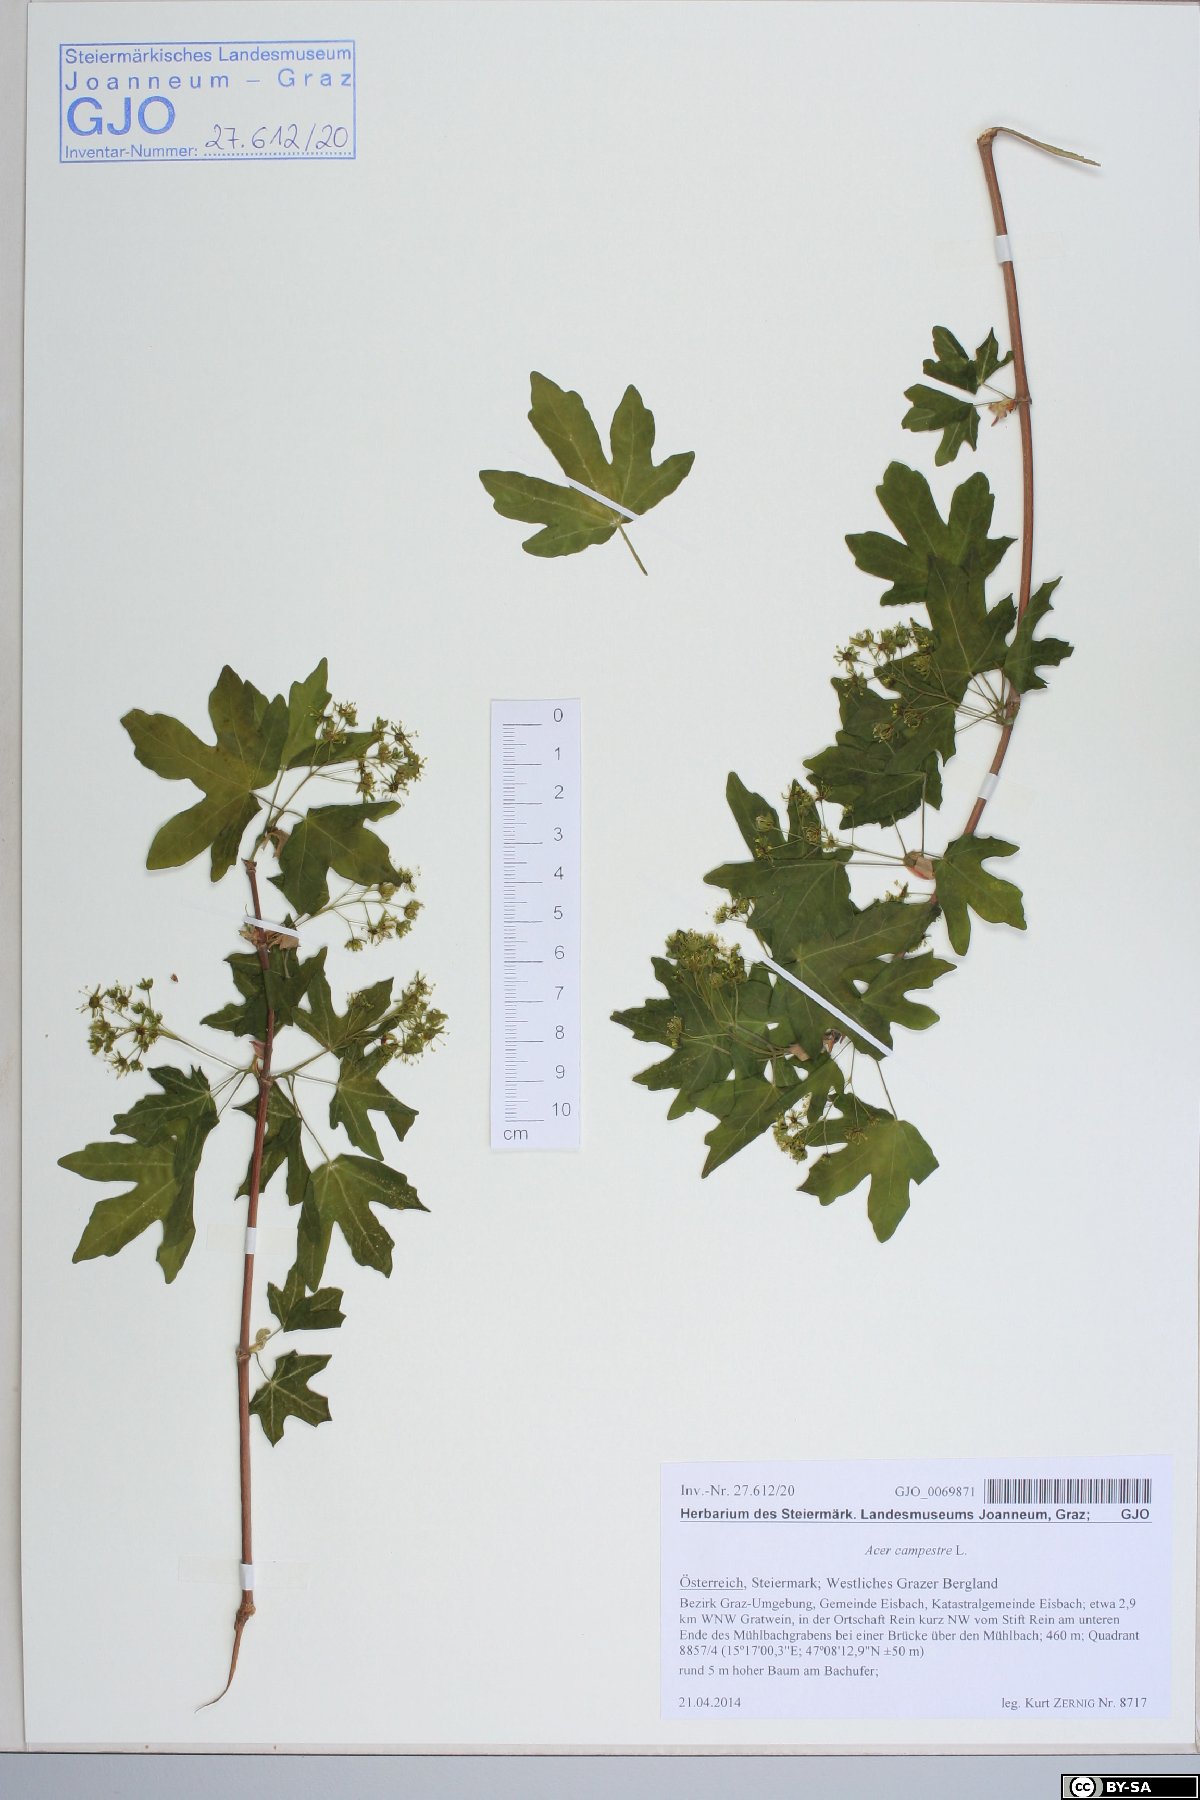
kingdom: Plantae
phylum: Tracheophyta
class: Magnoliopsida
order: Sapindales
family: Sapindaceae
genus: Acer
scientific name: Acer campestre
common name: Field maple
